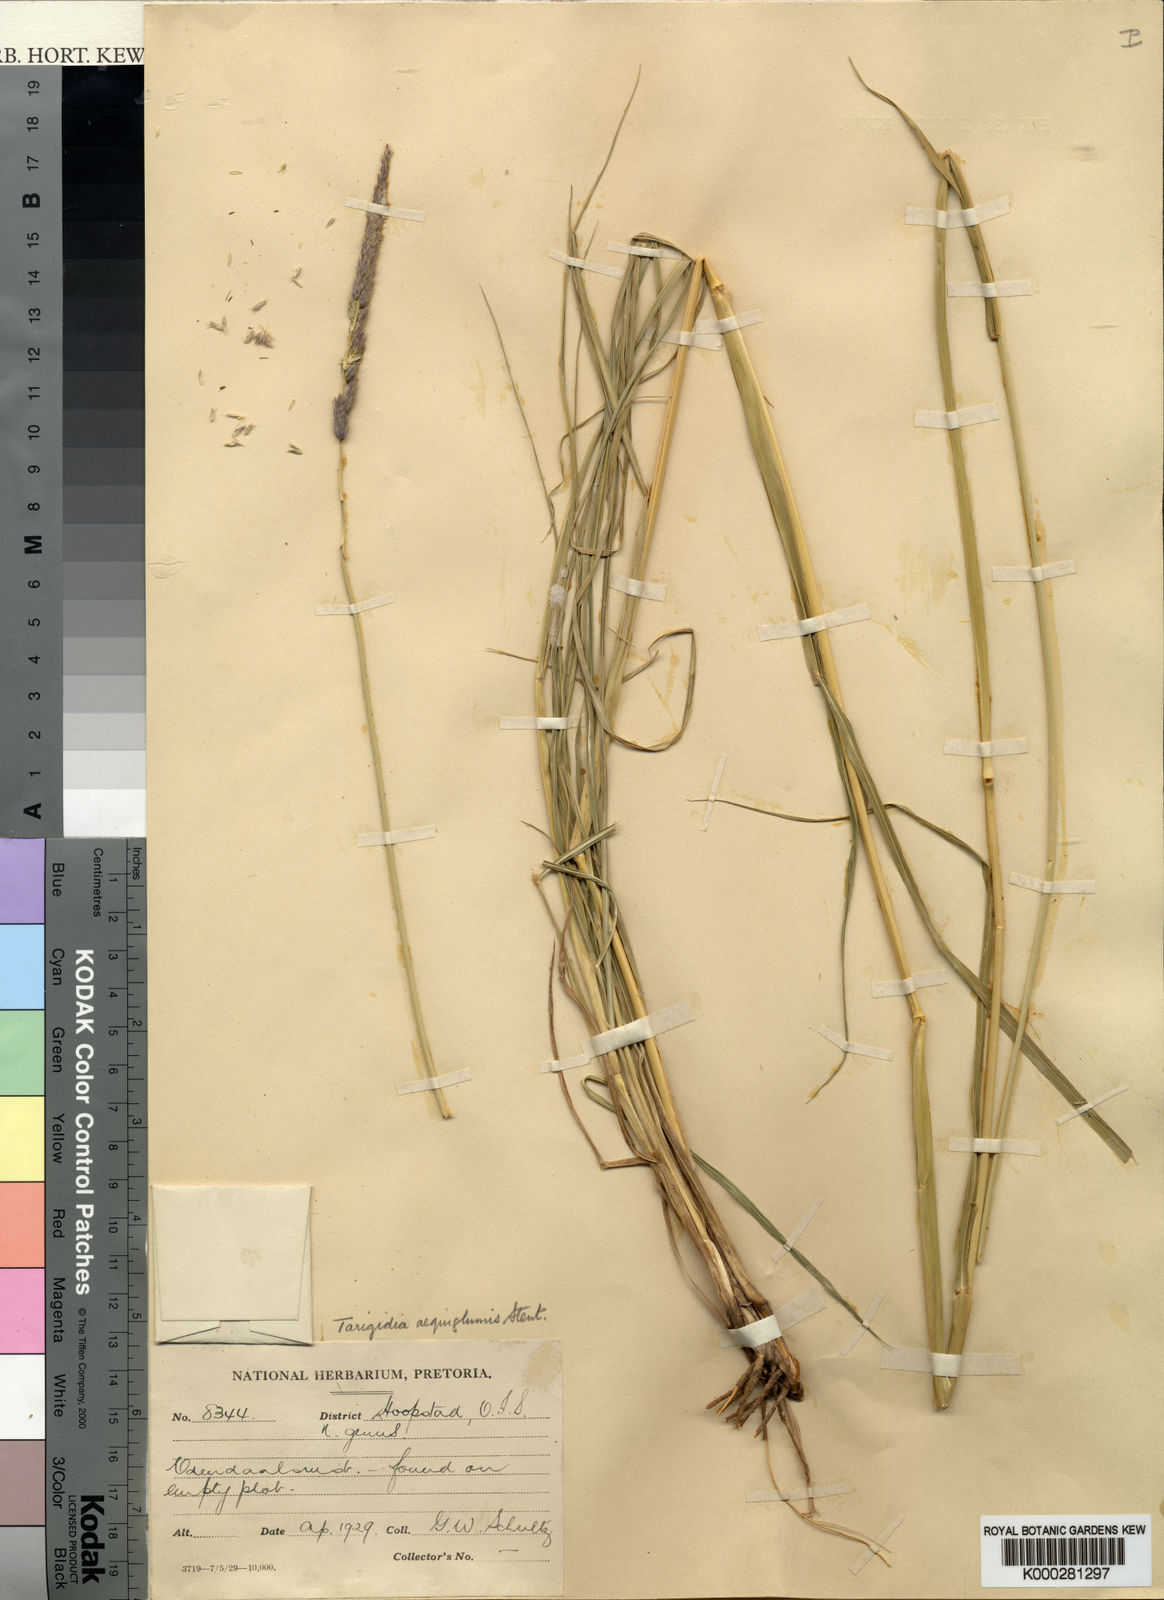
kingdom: Plantae
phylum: Tracheophyta
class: Liliopsida
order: Poales
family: Poaceae
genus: Tarigidia
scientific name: Tarigidia aequiglumis
